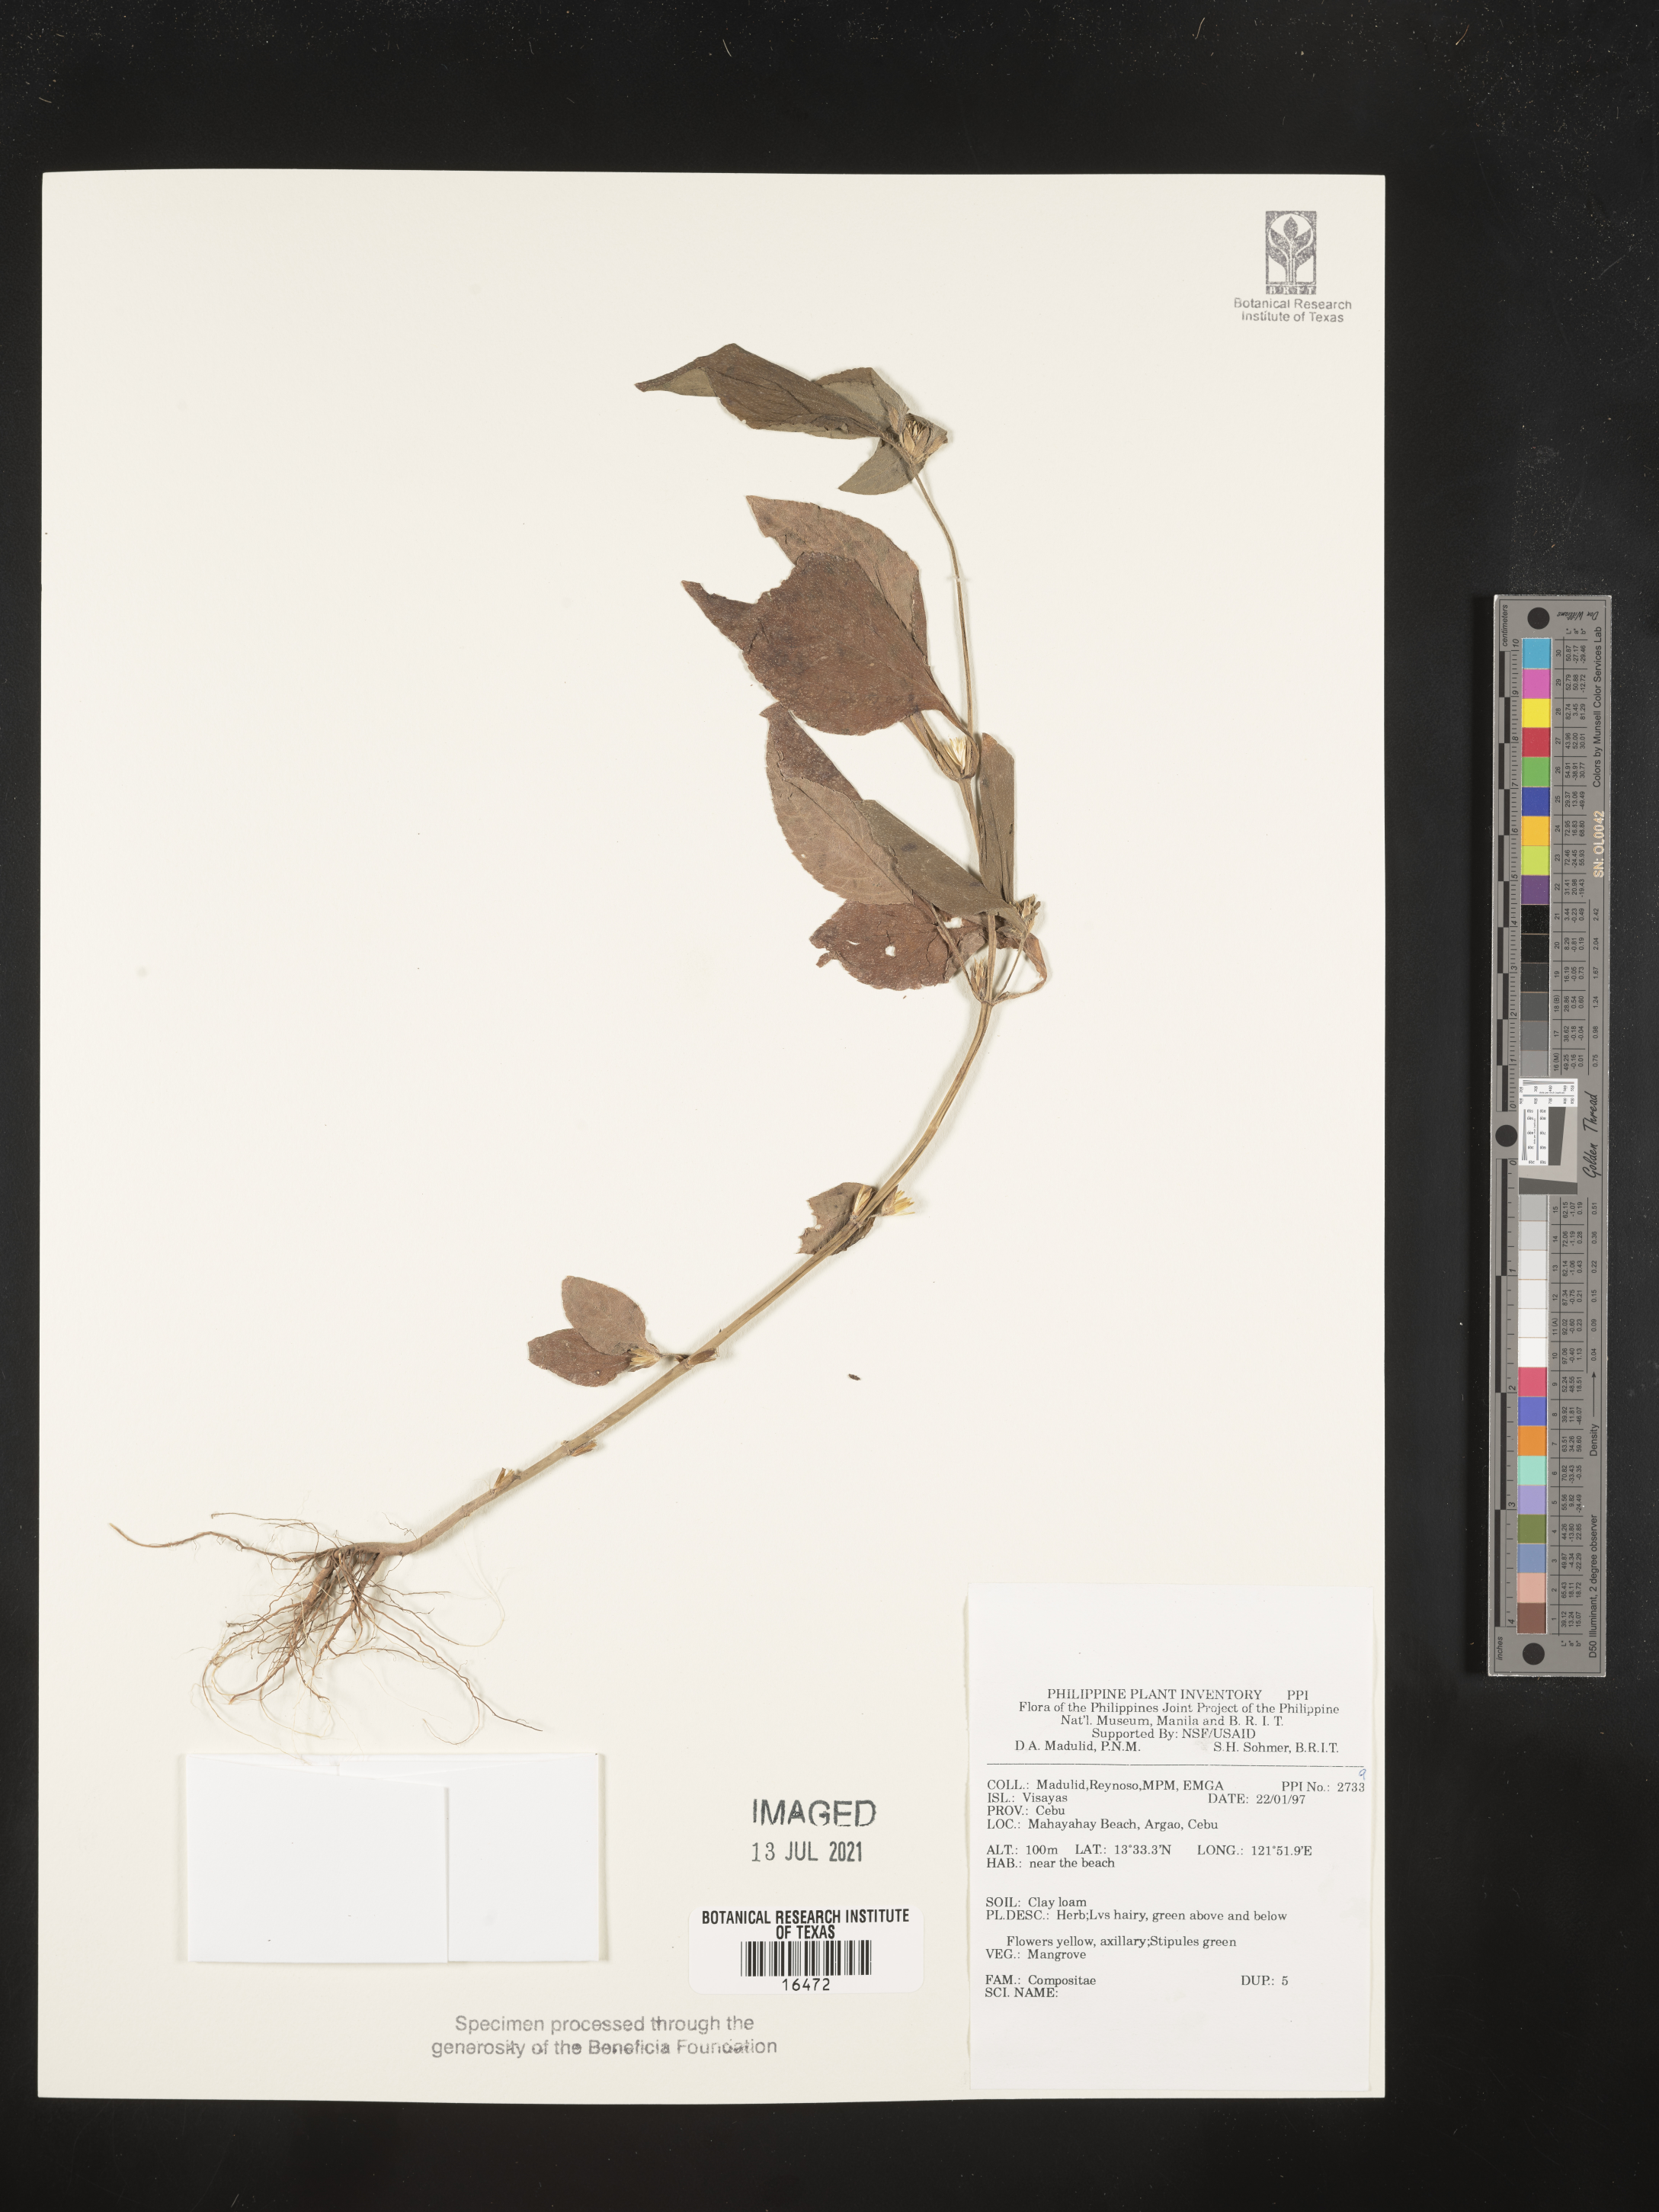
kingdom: Plantae
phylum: Tracheophyta
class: Magnoliopsida
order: Asterales
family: Asteraceae
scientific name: Asteraceae
